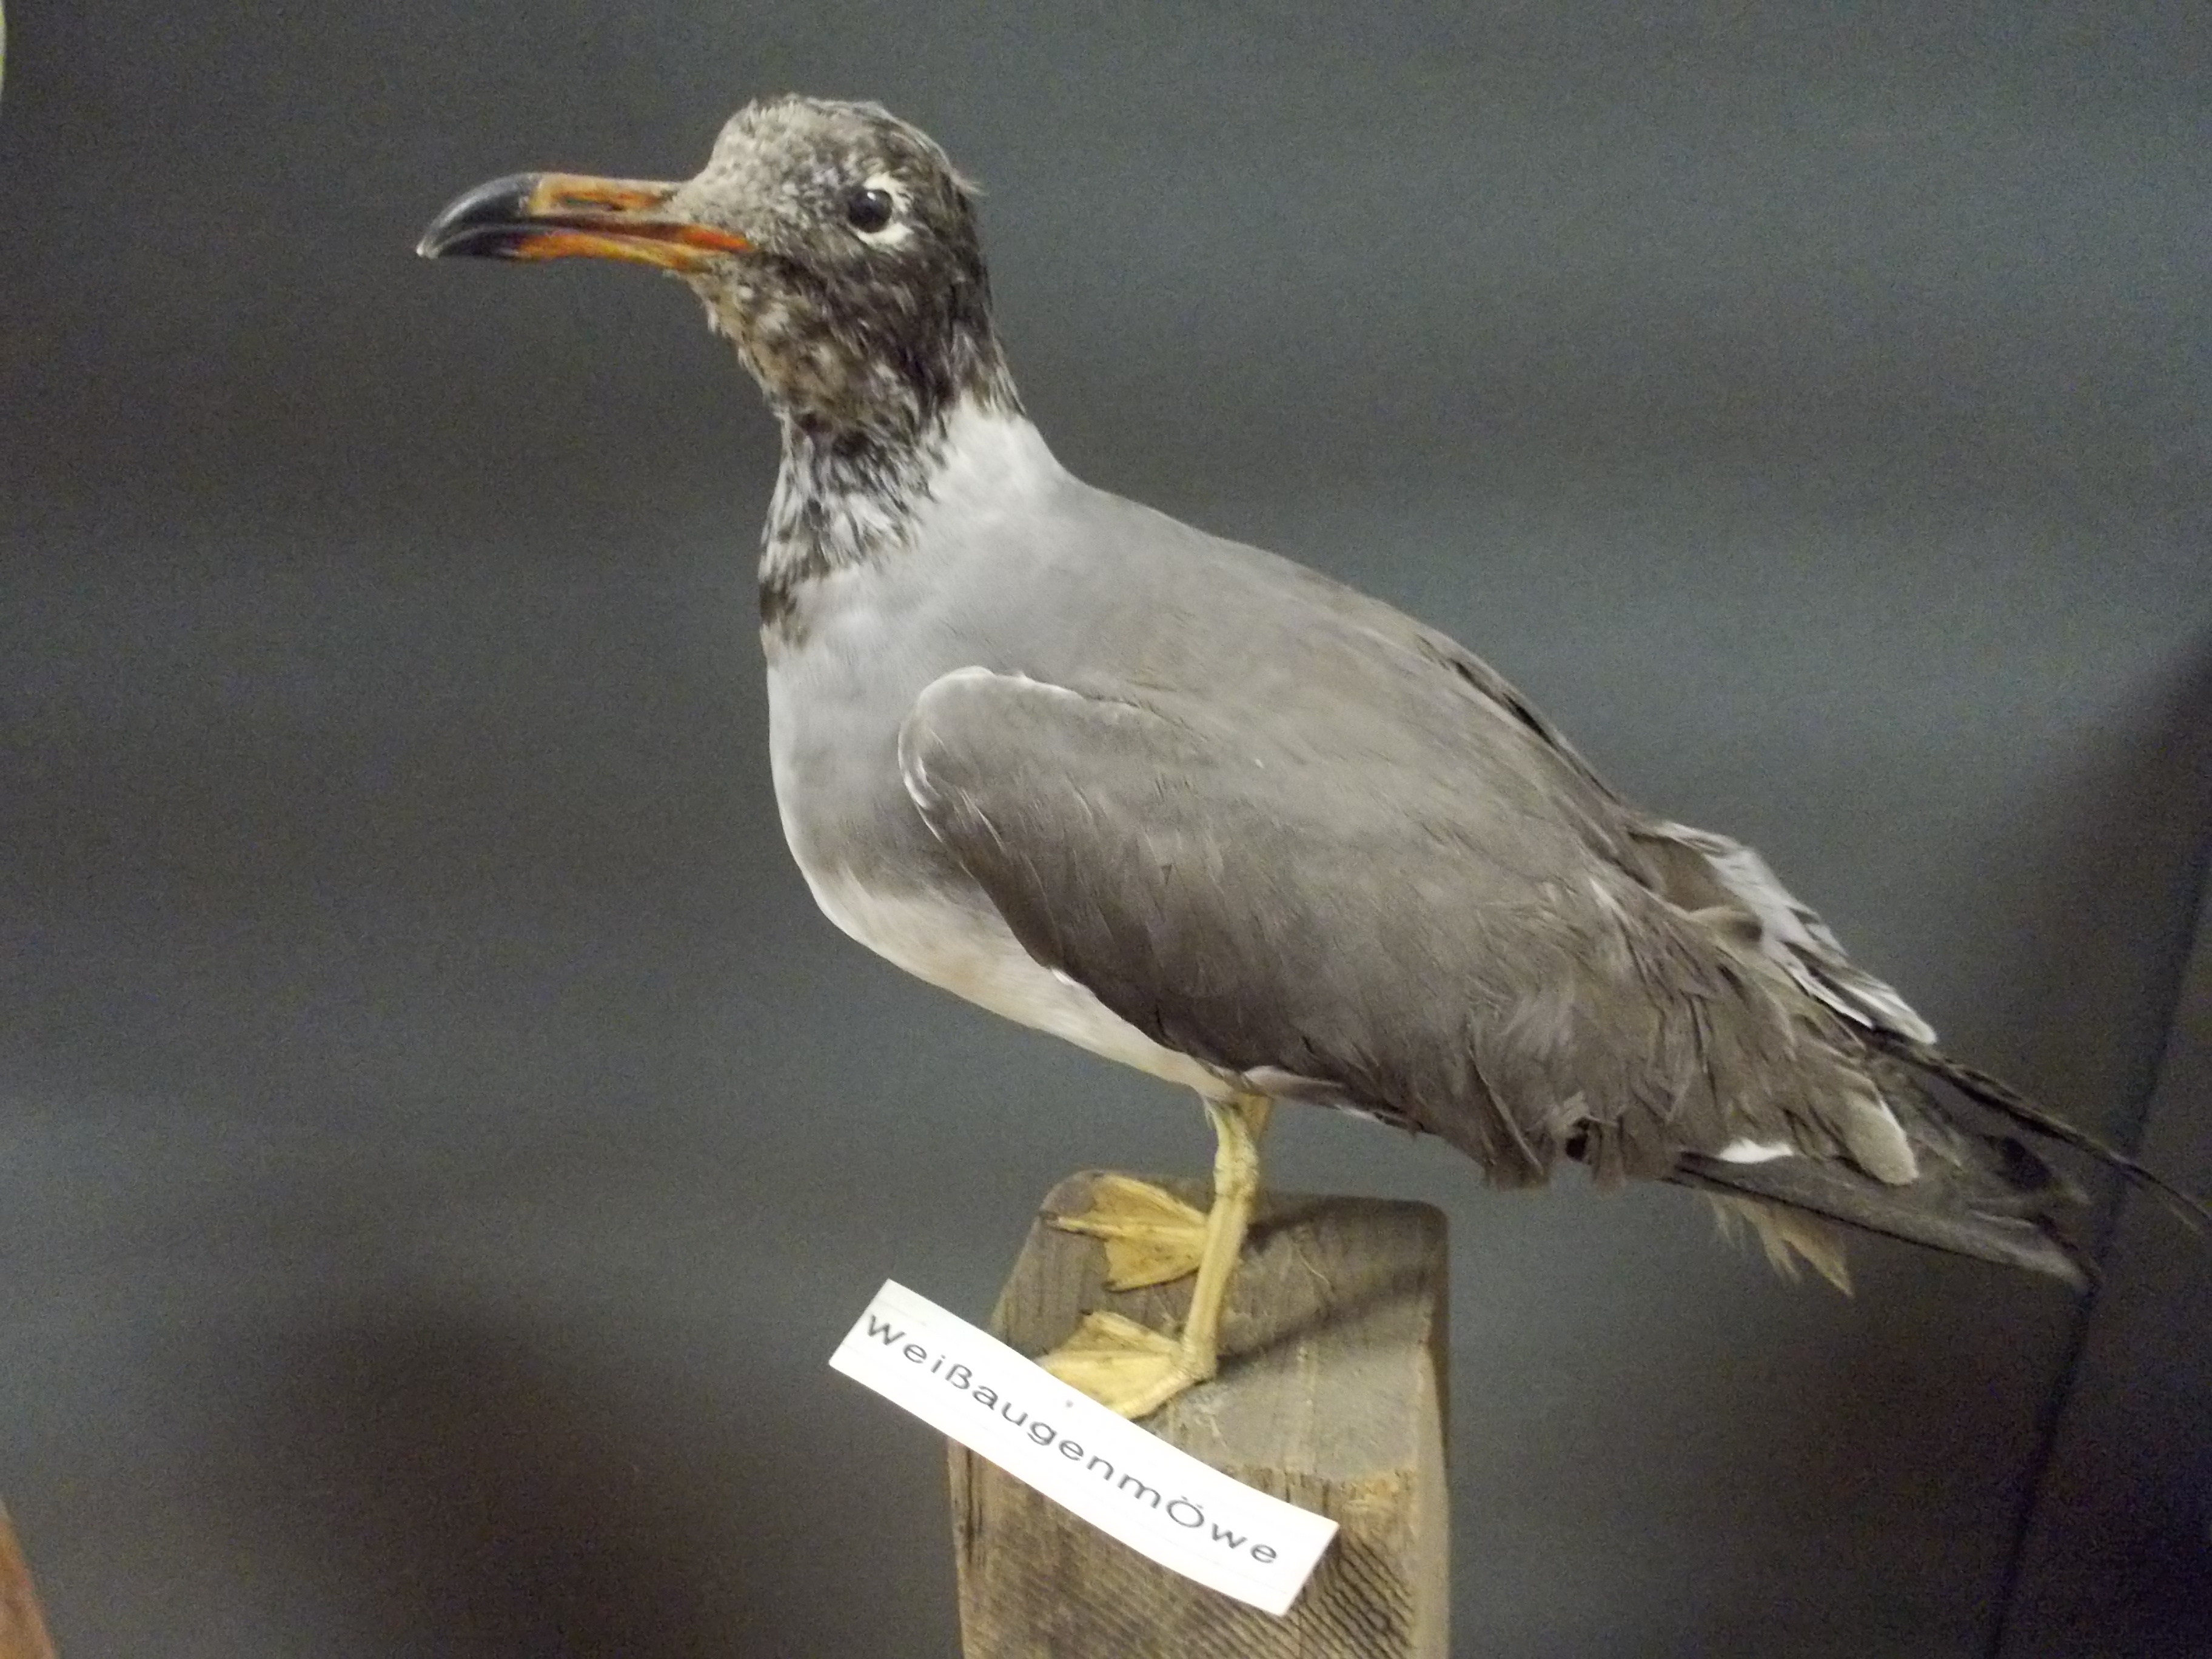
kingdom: Animalia
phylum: Chordata
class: Aves
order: Charadriiformes
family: Laridae
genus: Leucophaeus
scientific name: Leucophaeus atricilla
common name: Laughing gull
